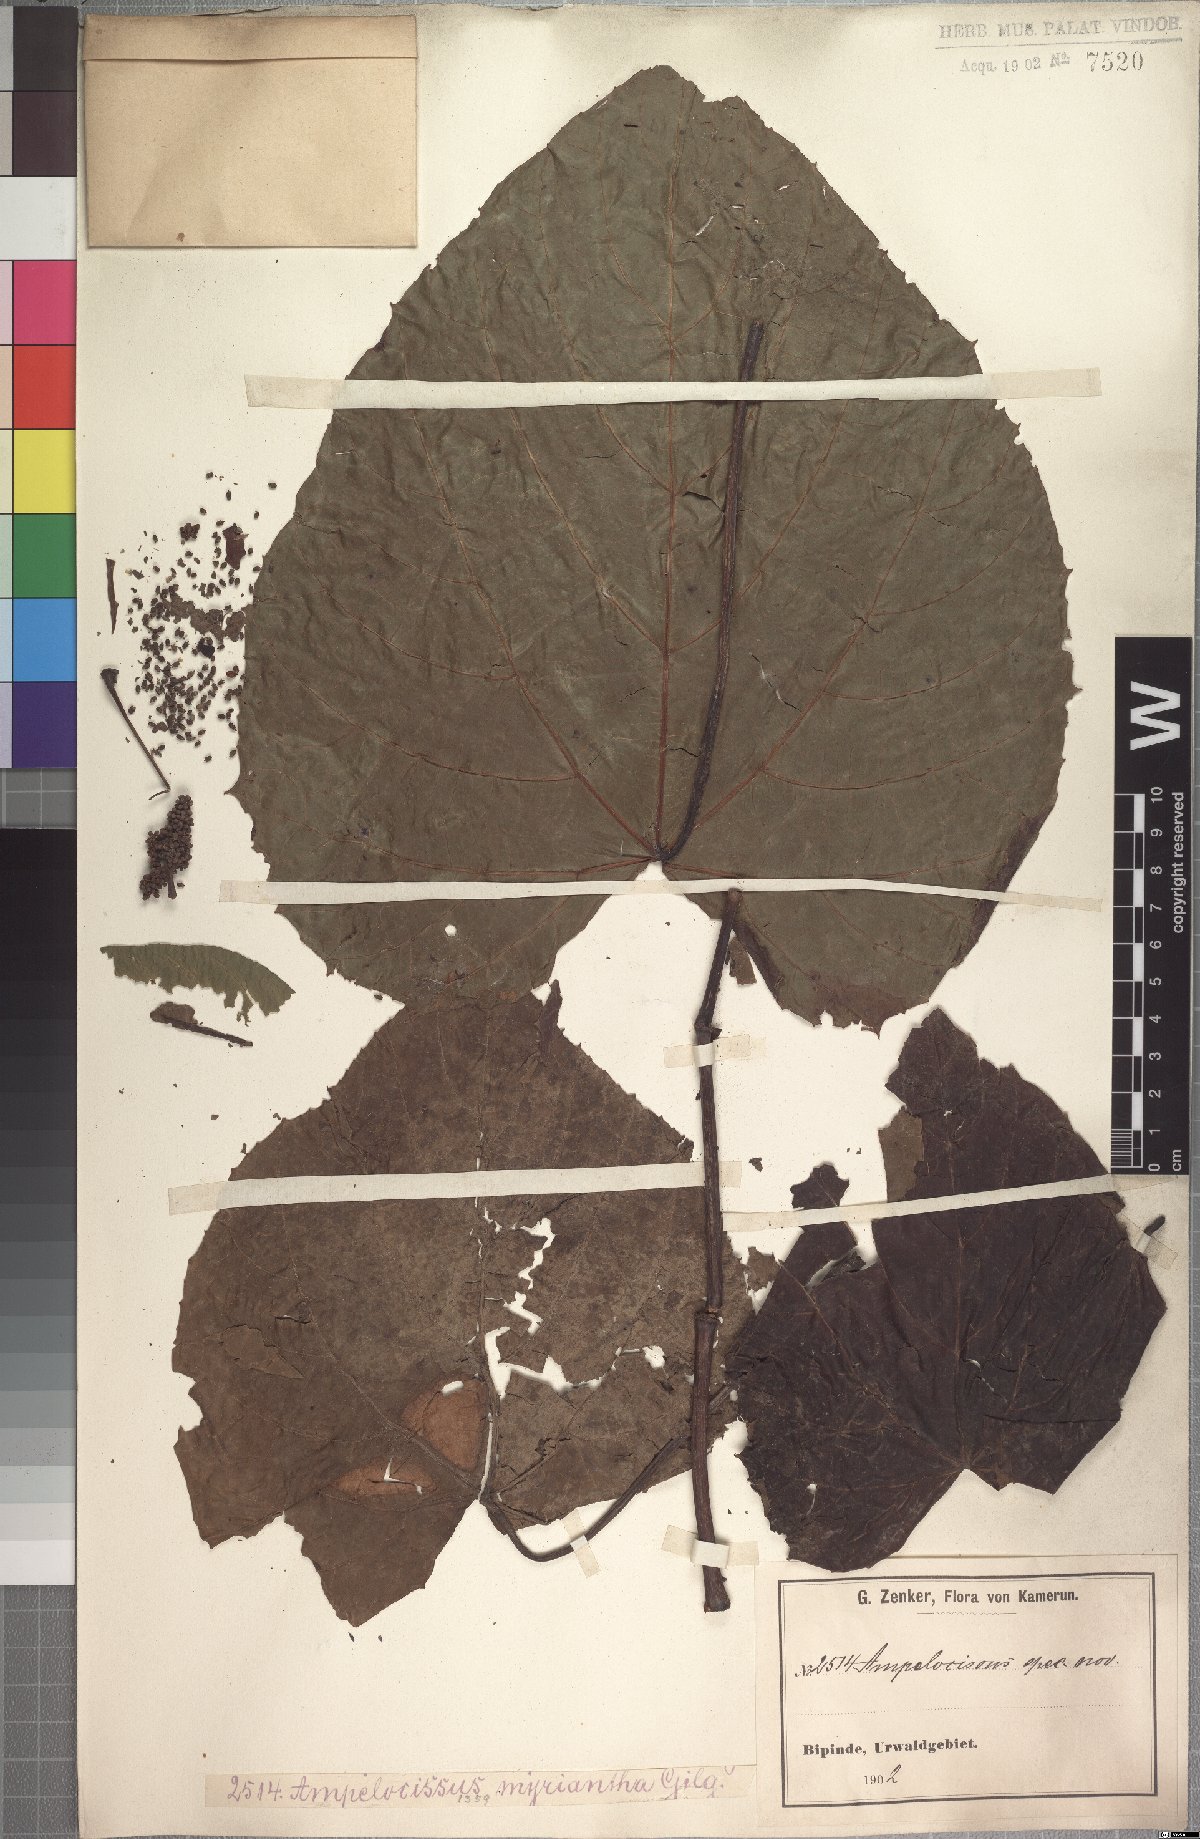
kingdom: Plantae
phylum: Tracheophyta
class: Magnoliopsida
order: Vitales
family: Vitaceae
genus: Ampelocissus
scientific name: Ampelocissus macrocirrha
